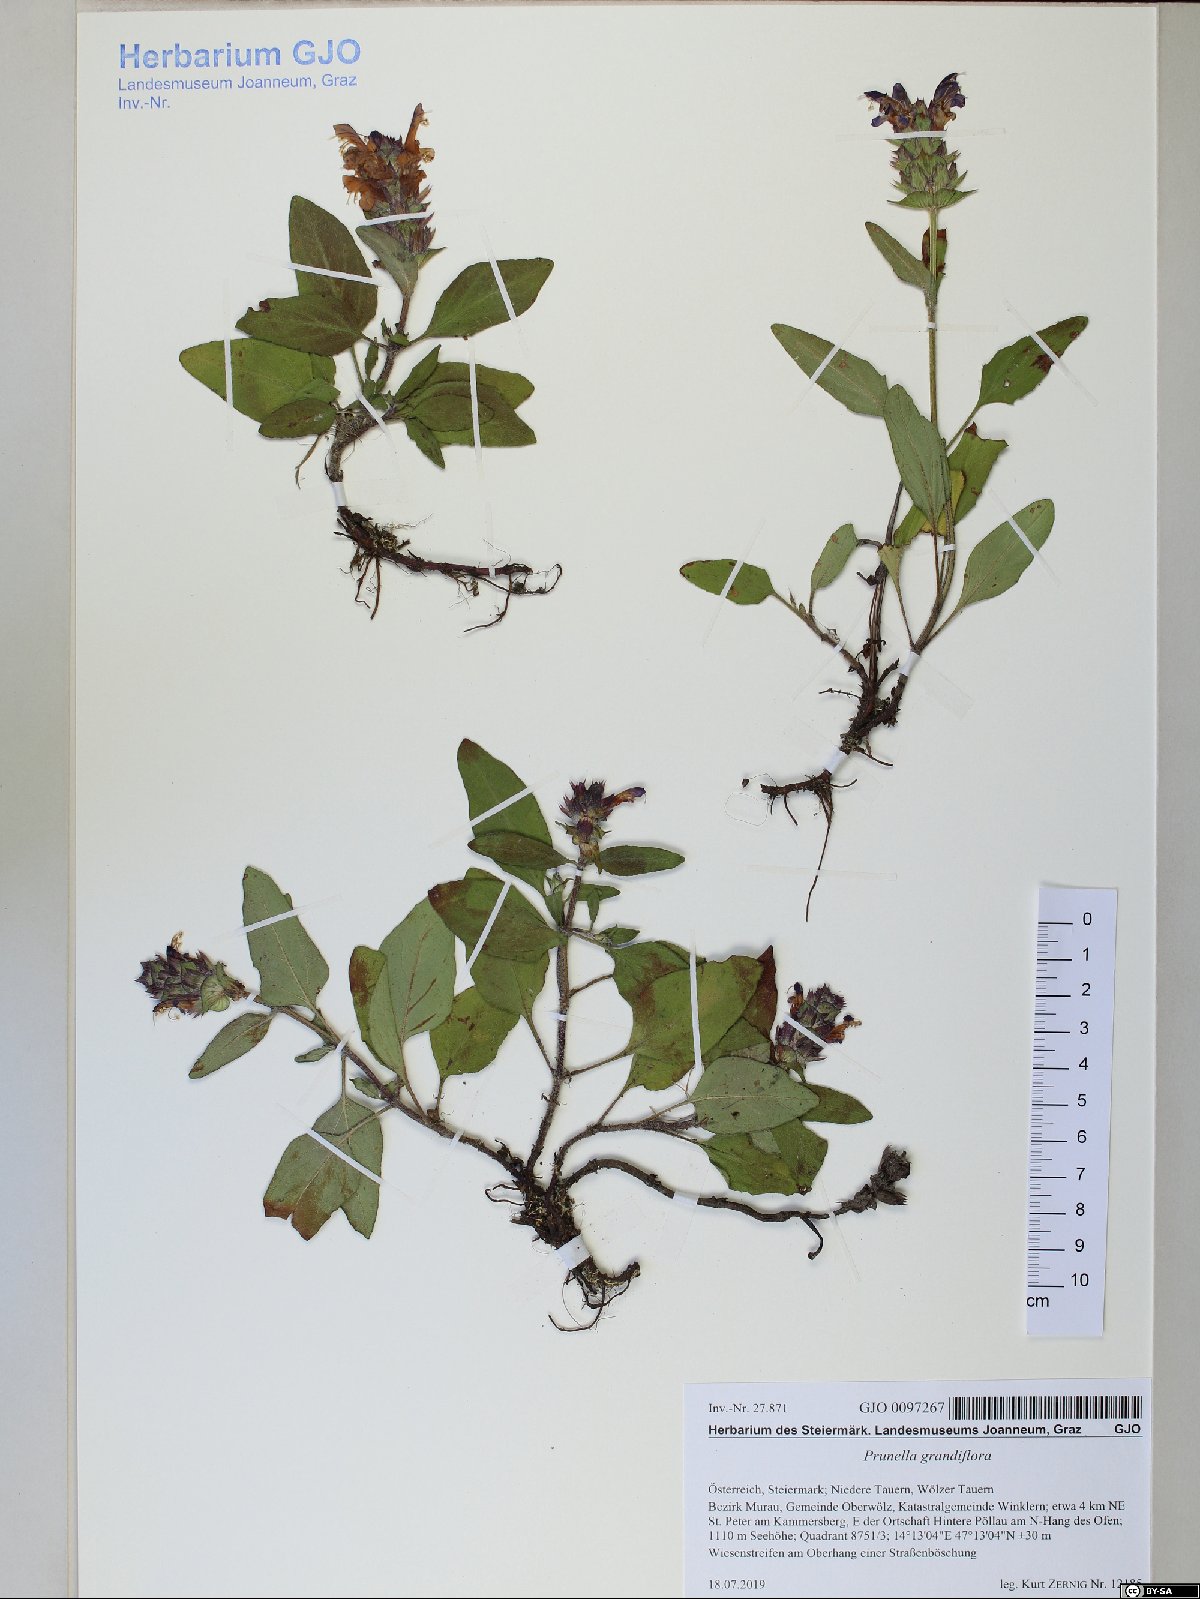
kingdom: Plantae
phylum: Tracheophyta
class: Magnoliopsida
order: Lamiales
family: Lamiaceae
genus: Prunella
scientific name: Prunella grandiflora
